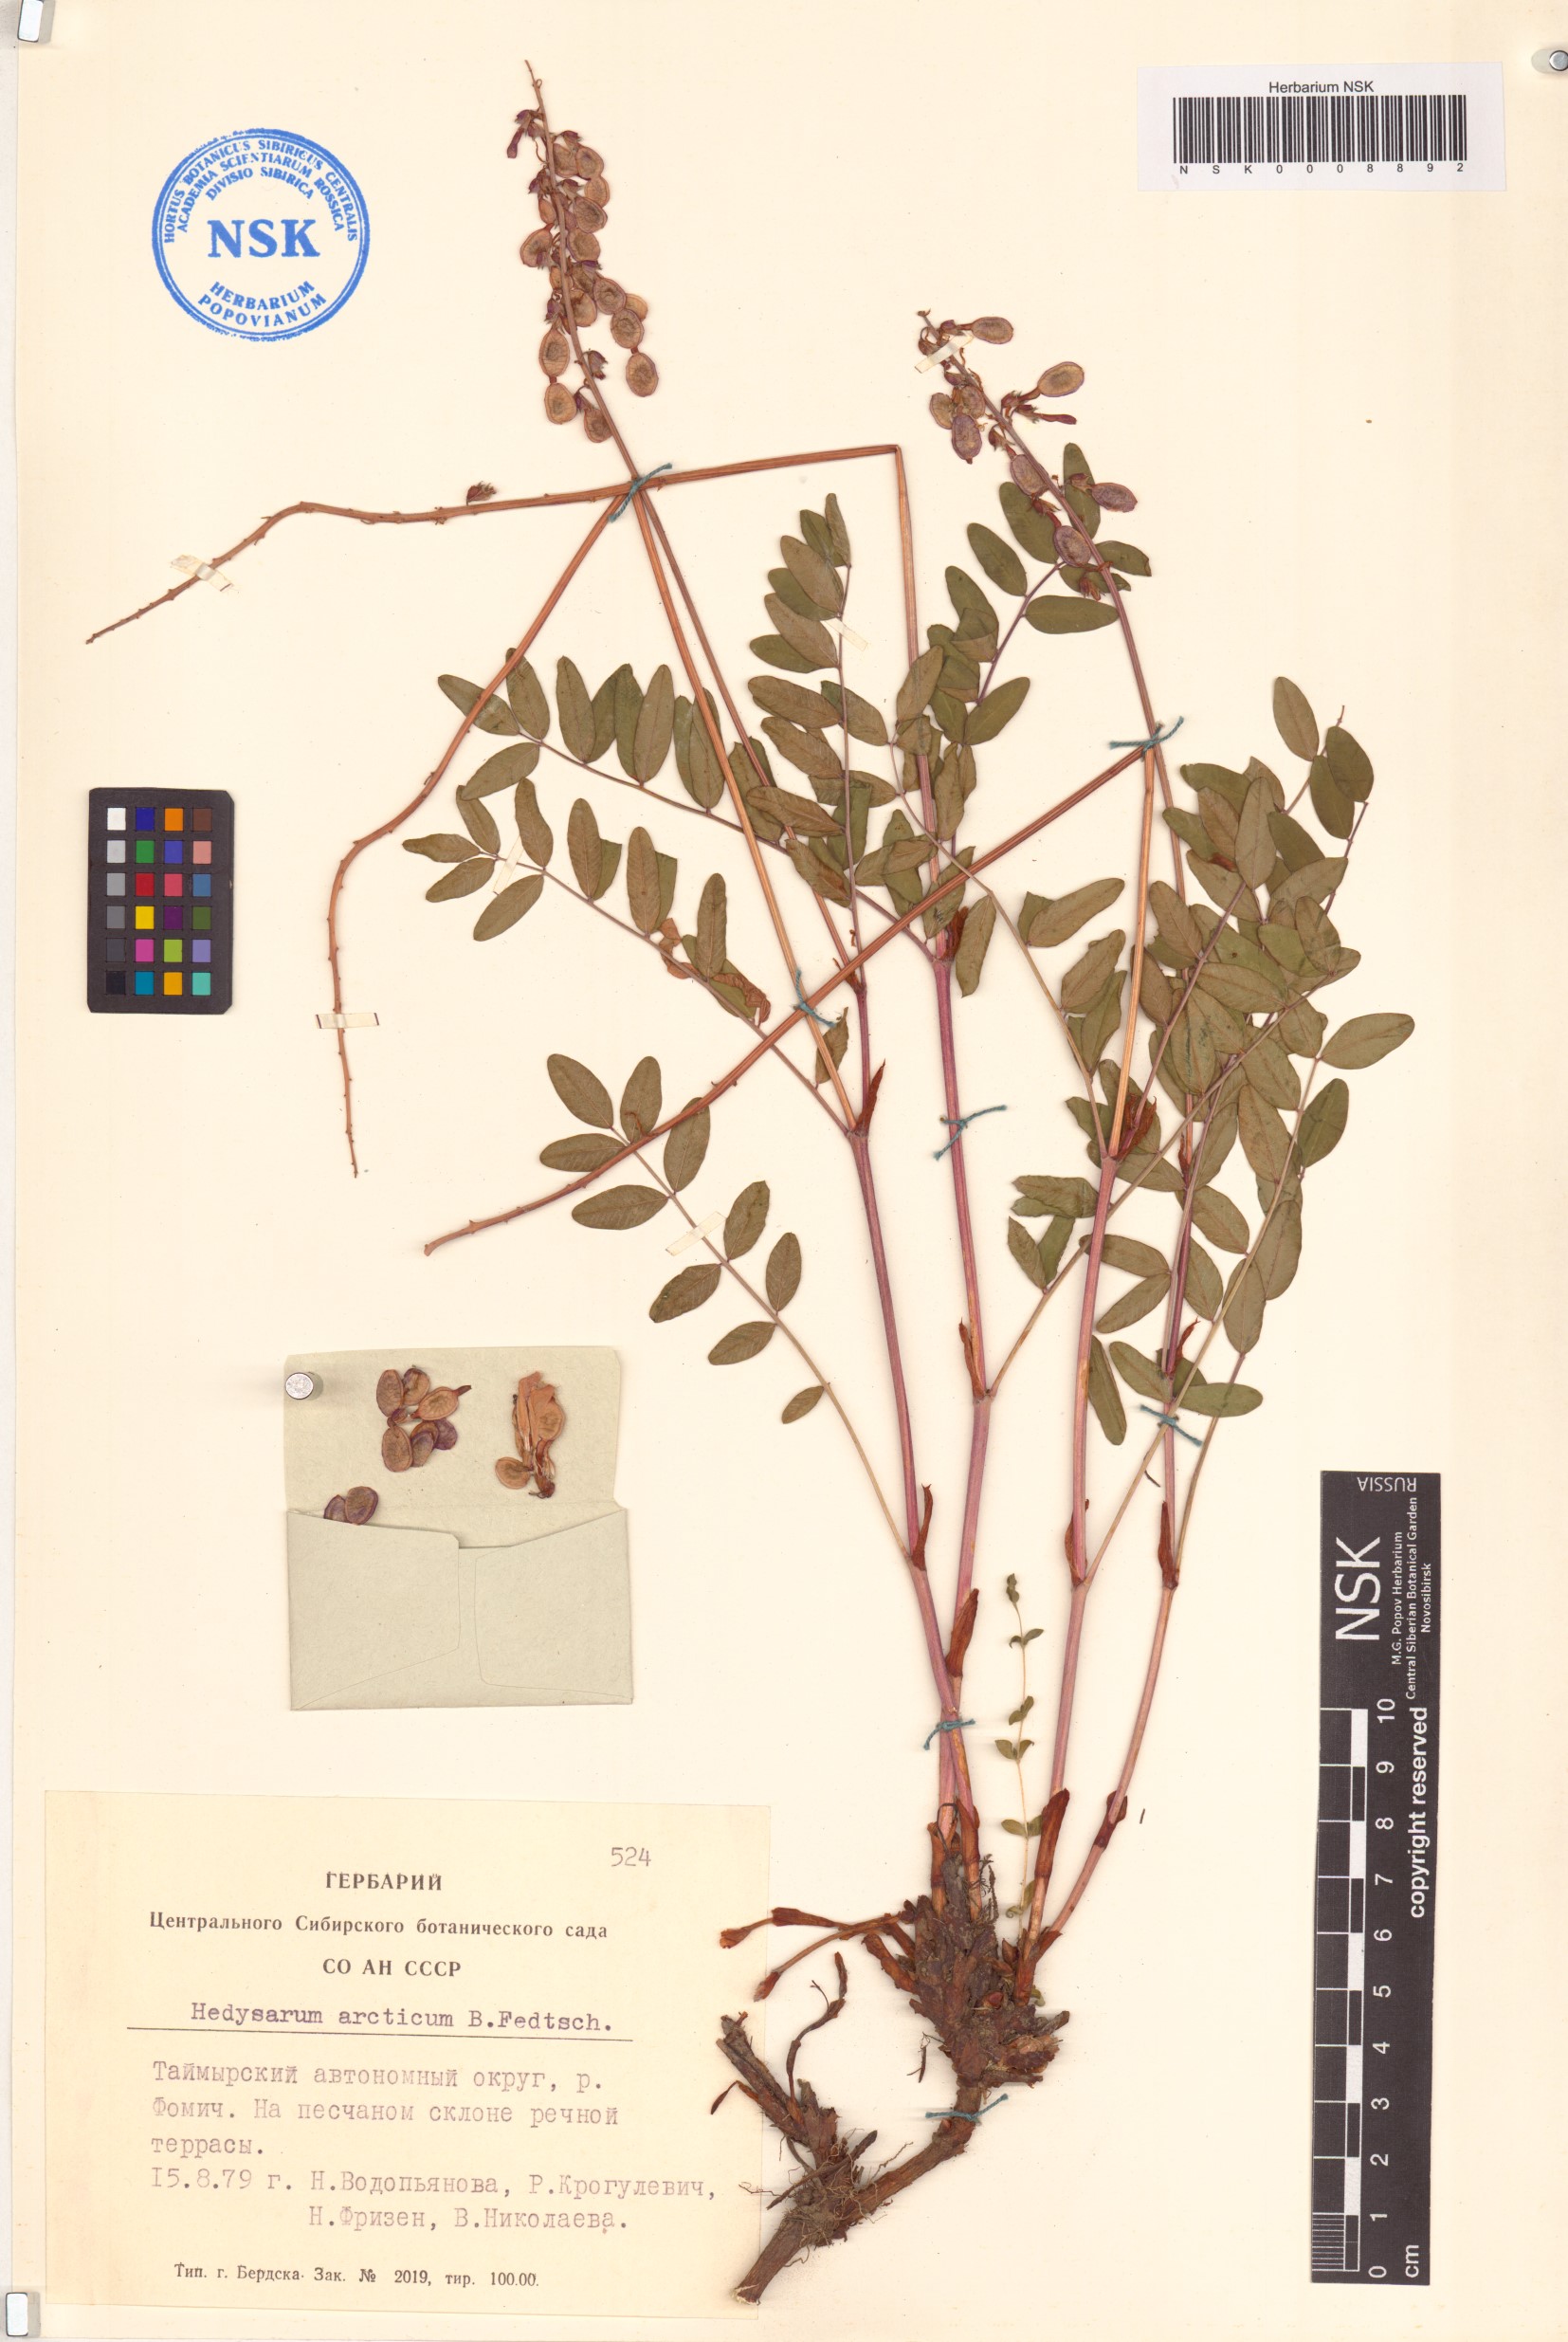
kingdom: Plantae
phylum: Tracheophyta
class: Magnoliopsida
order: Fabales
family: Fabaceae
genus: Hedysarum
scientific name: Hedysarum hedysaroides
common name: Alpine french-honeysuckle
